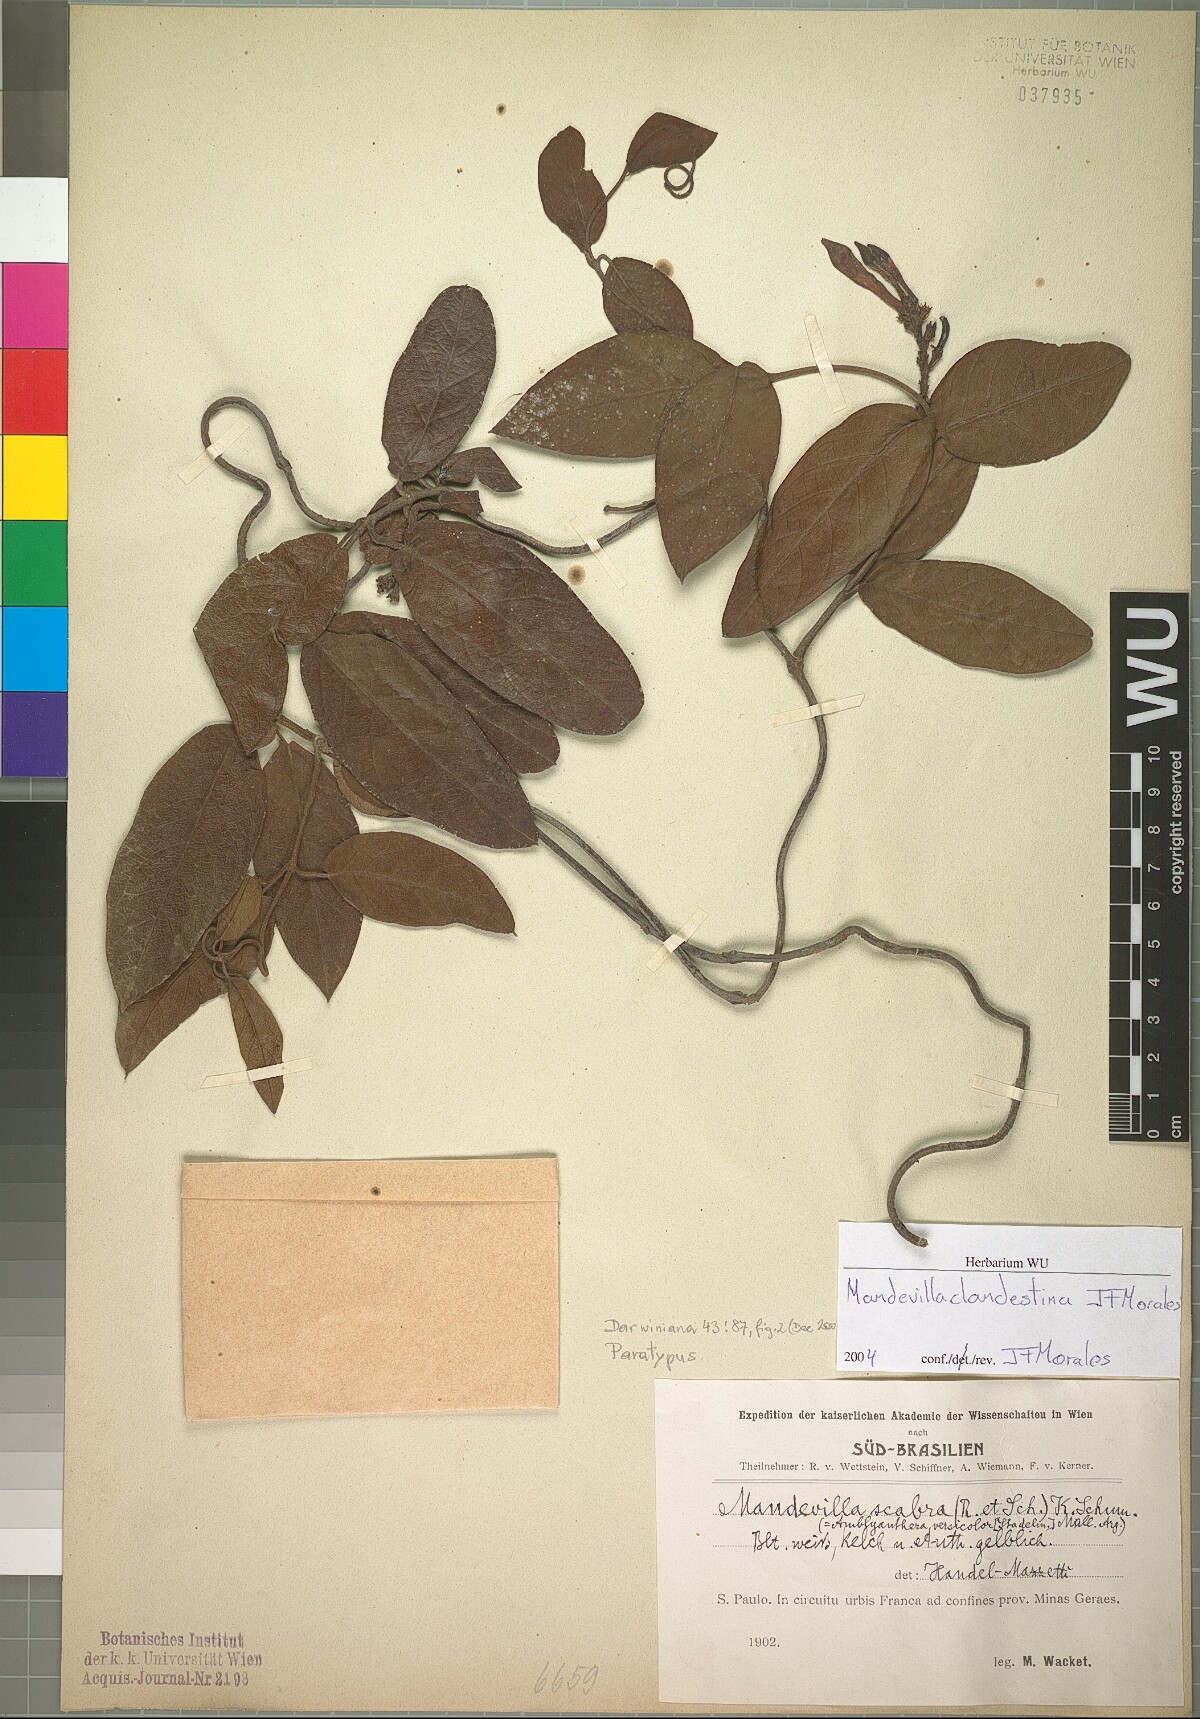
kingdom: Plantae
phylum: Tracheophyta
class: Magnoliopsida
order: Gentianales
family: Apocynaceae
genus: Mandevilla
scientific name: Mandevilla clandestina
